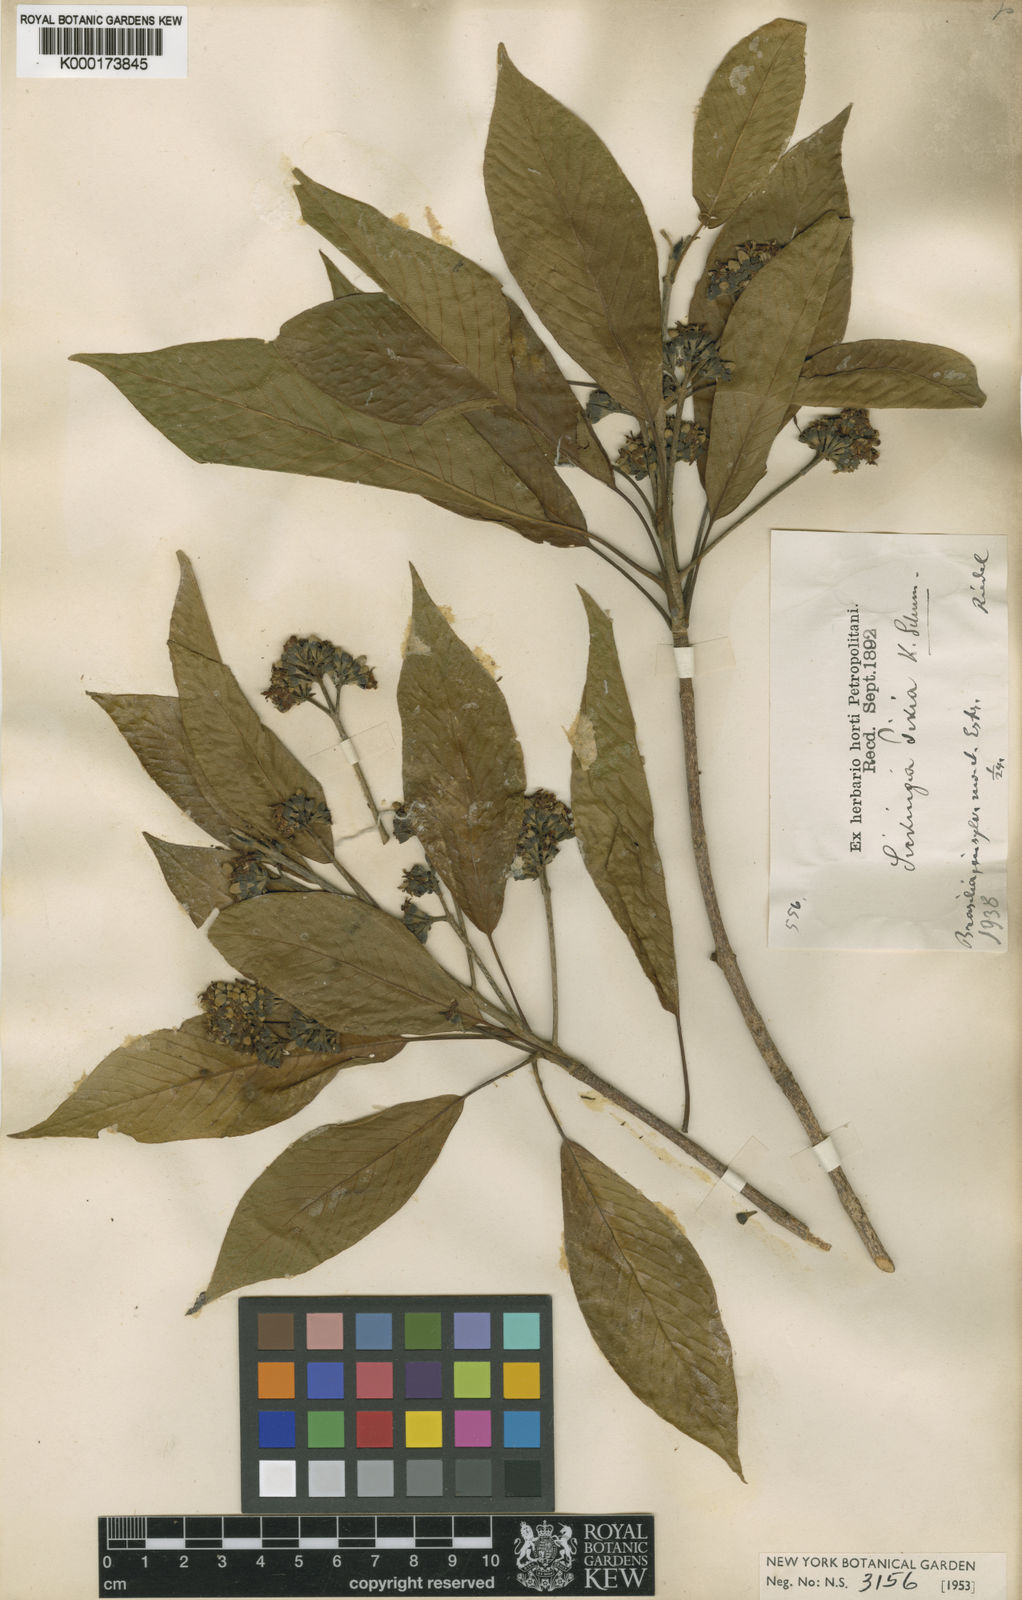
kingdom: Plantae
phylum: Tracheophyta
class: Magnoliopsida
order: Gentianales
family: Rubiaceae
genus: Simira
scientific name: Simira pikia
